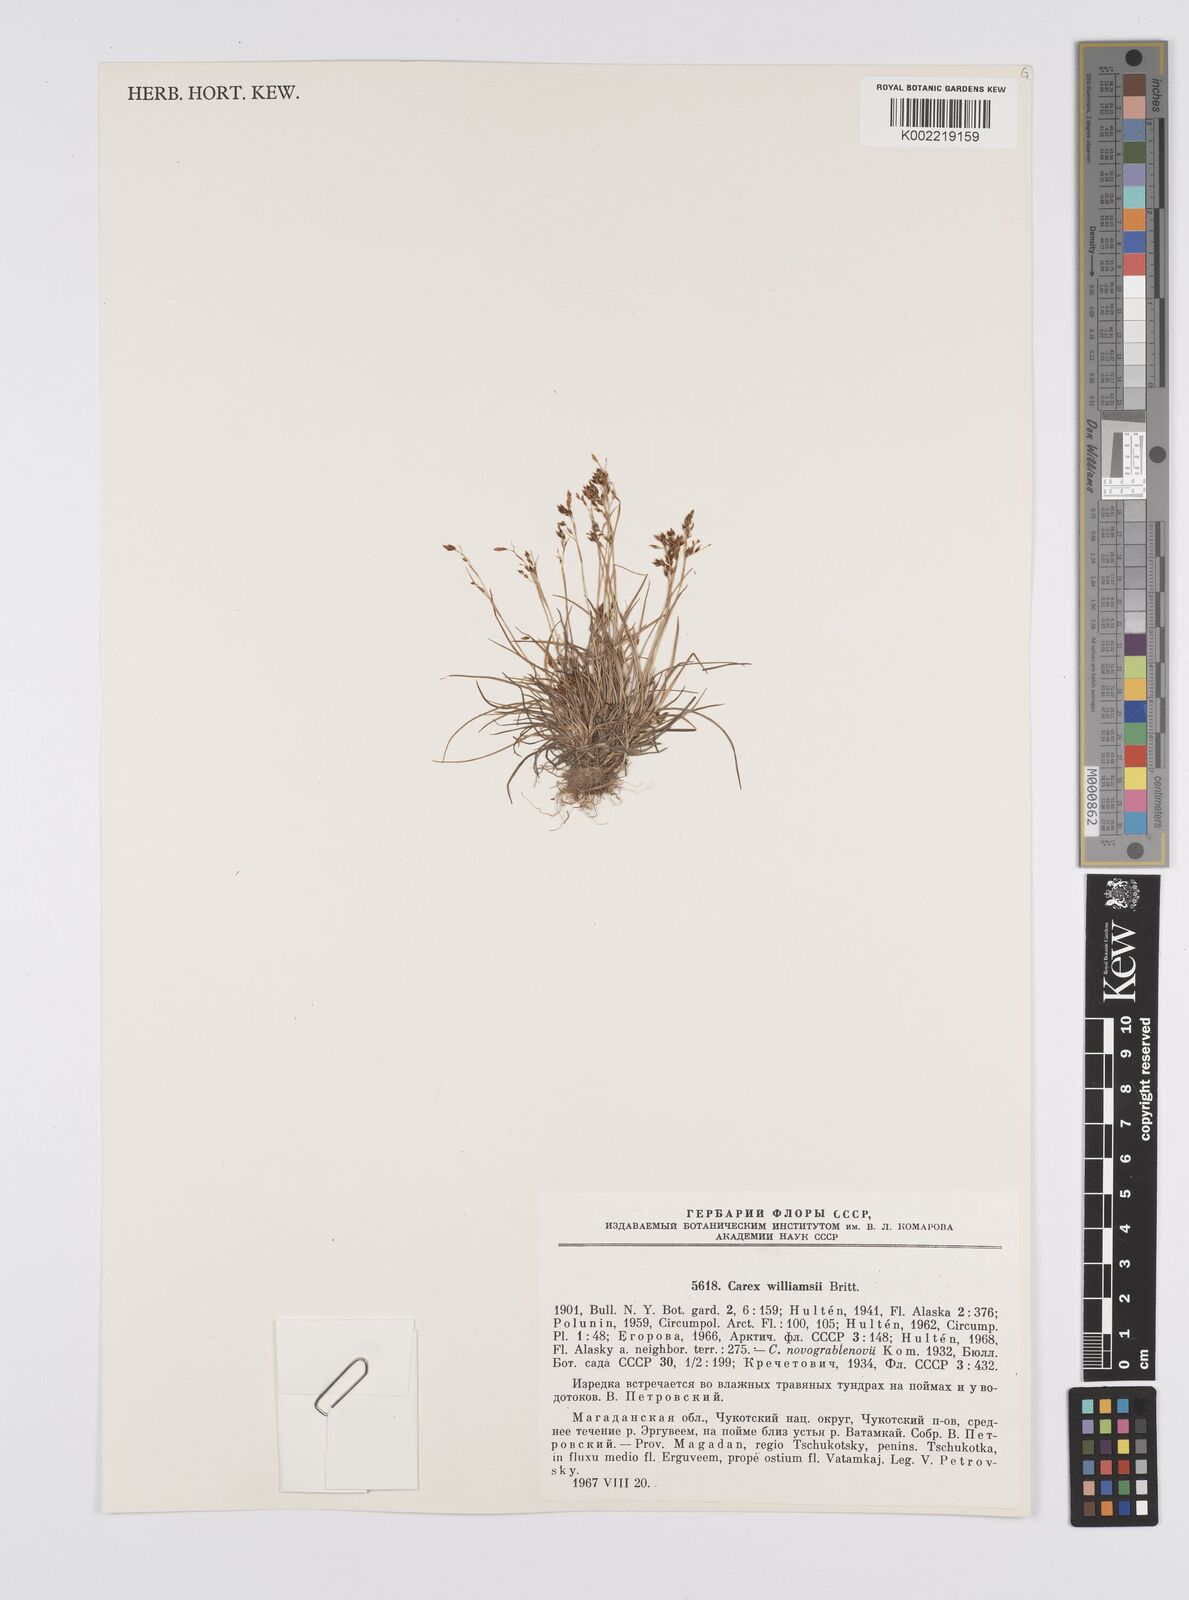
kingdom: Plantae
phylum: Tracheophyta
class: Liliopsida
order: Poales
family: Cyperaceae
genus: Carex
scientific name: Carex williamsii
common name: Williams' sedge
